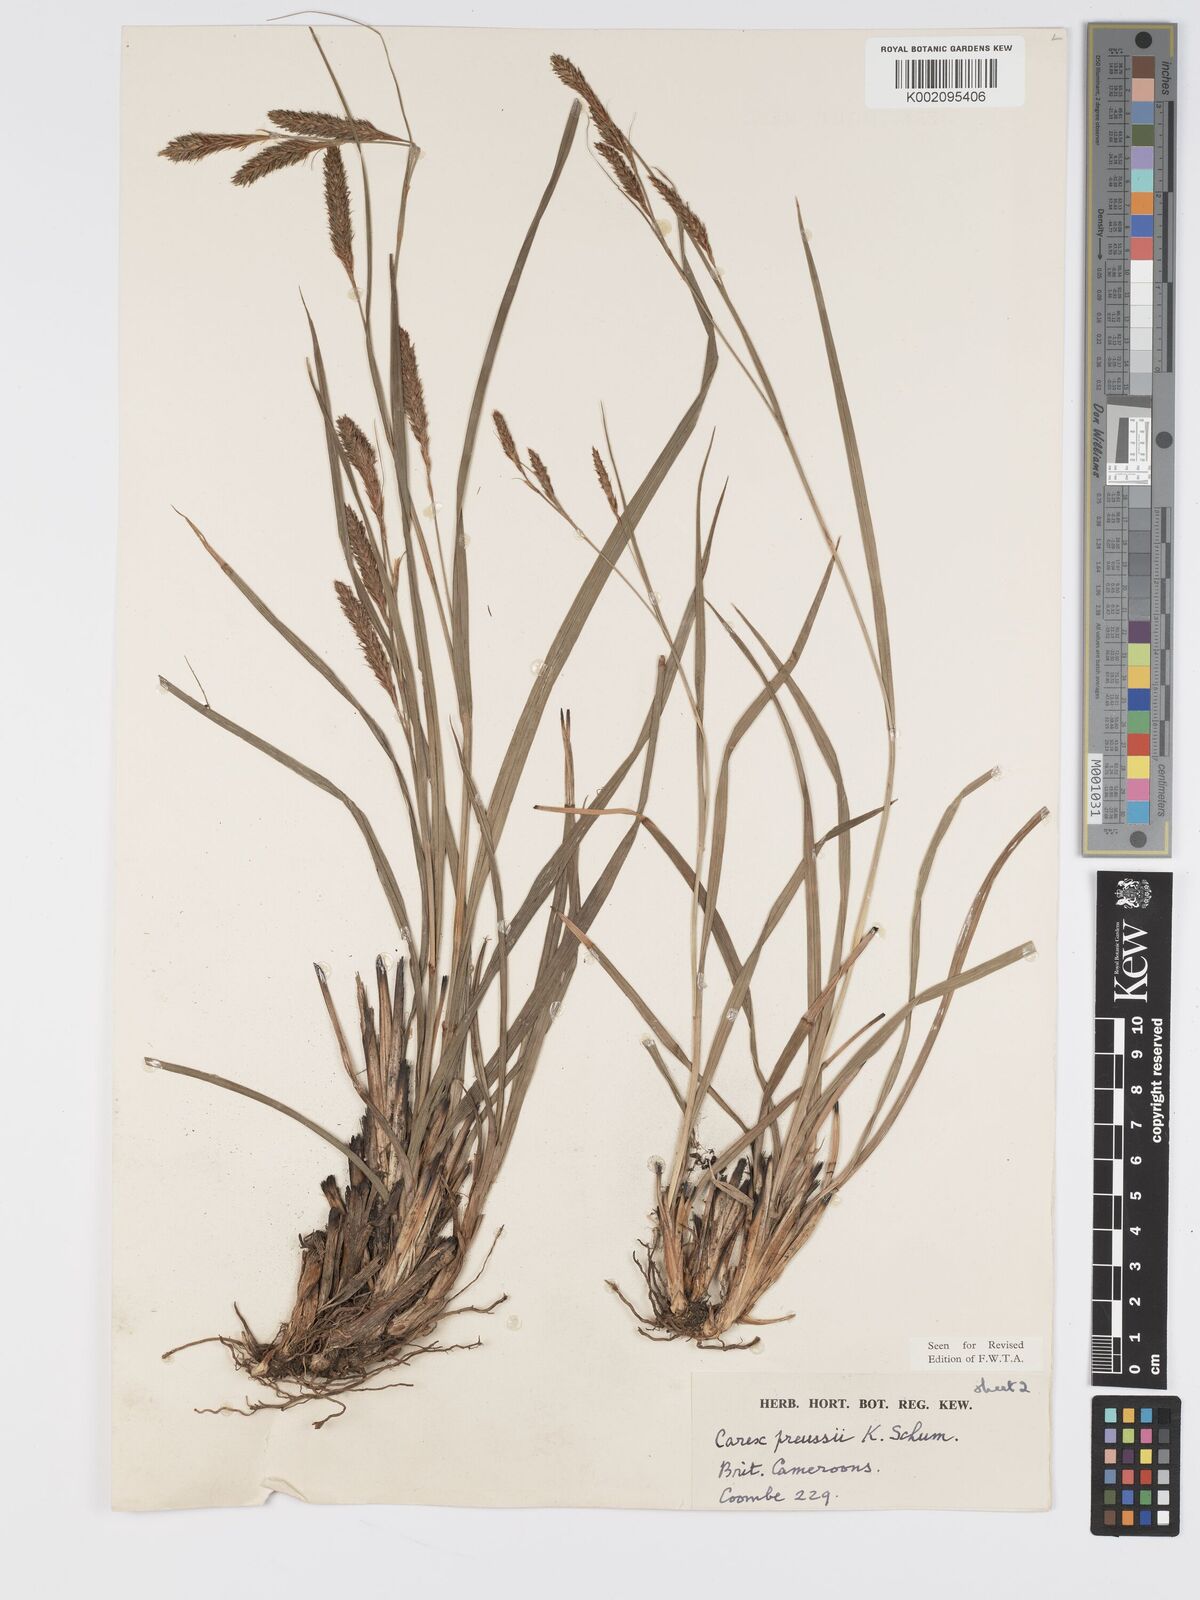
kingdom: Plantae
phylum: Tracheophyta
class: Liliopsida
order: Poales
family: Cyperaceae
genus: Carex
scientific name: Carex petitiana
